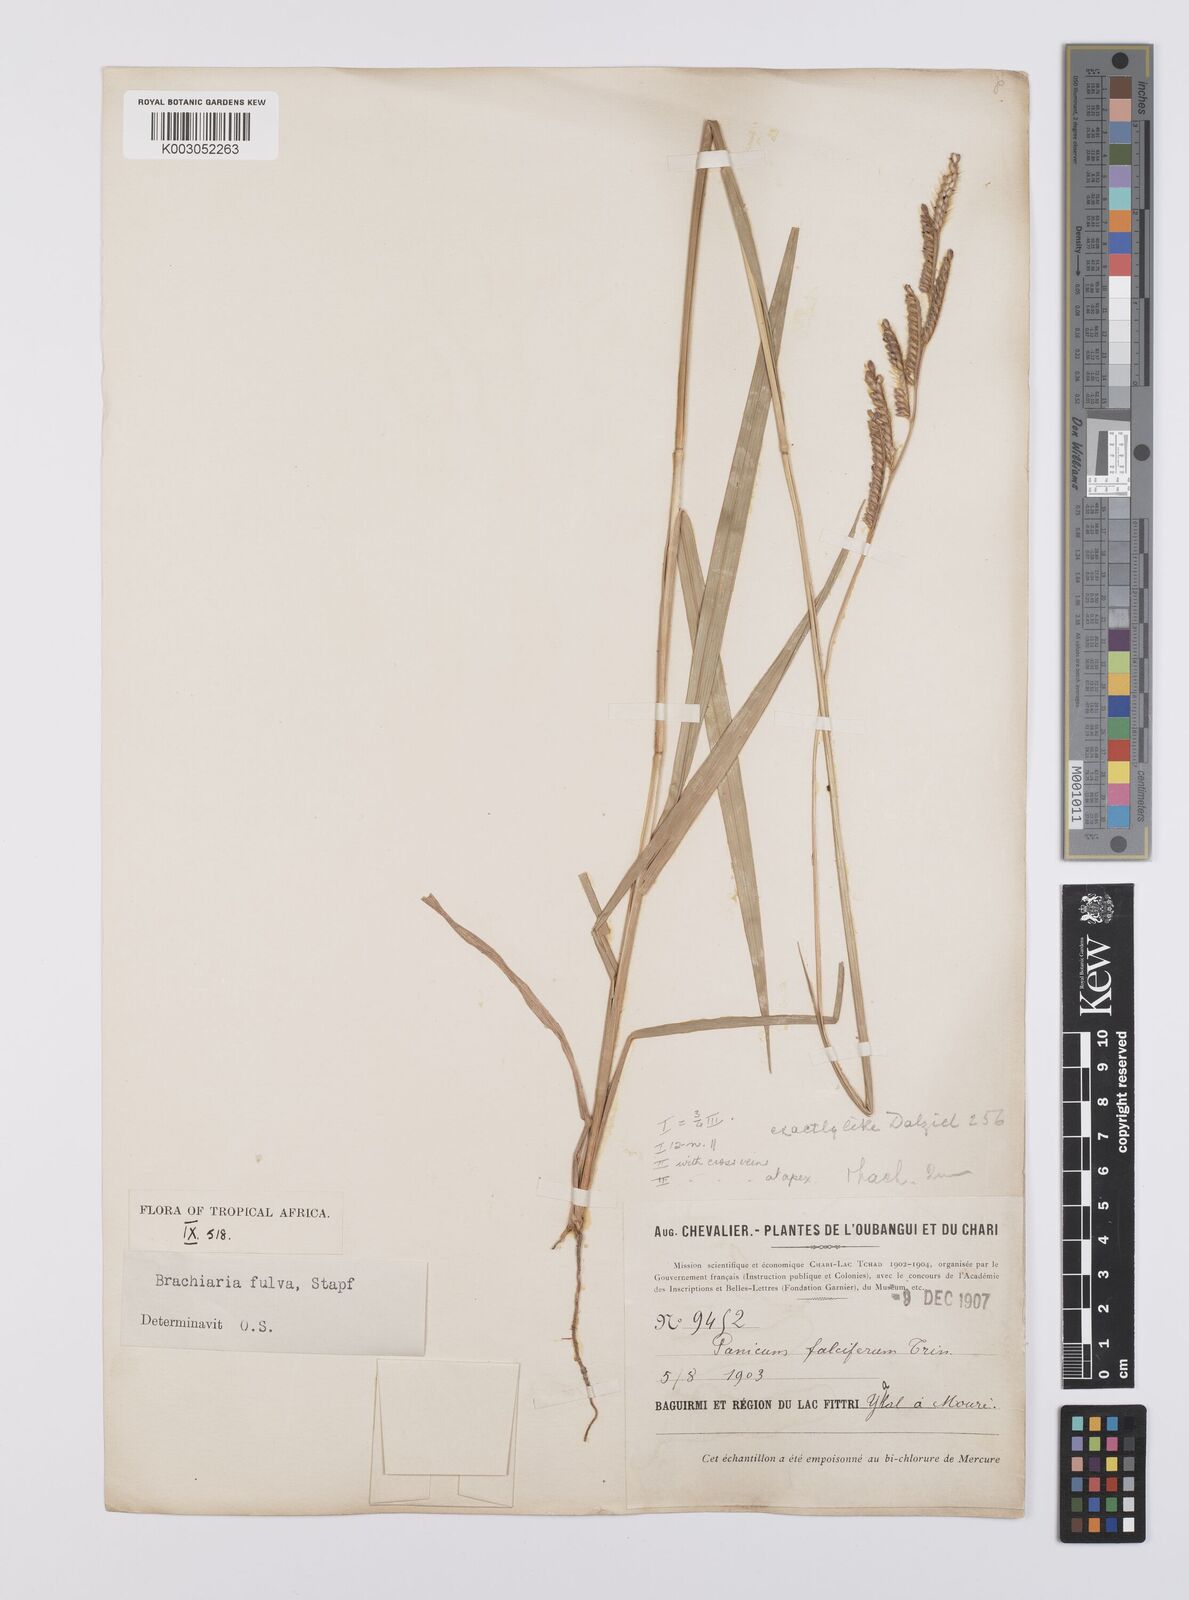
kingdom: Plantae
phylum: Tracheophyta
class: Liliopsida
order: Poales
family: Poaceae
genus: Urochloa
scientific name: Urochloa jubata
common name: Buffalograss
